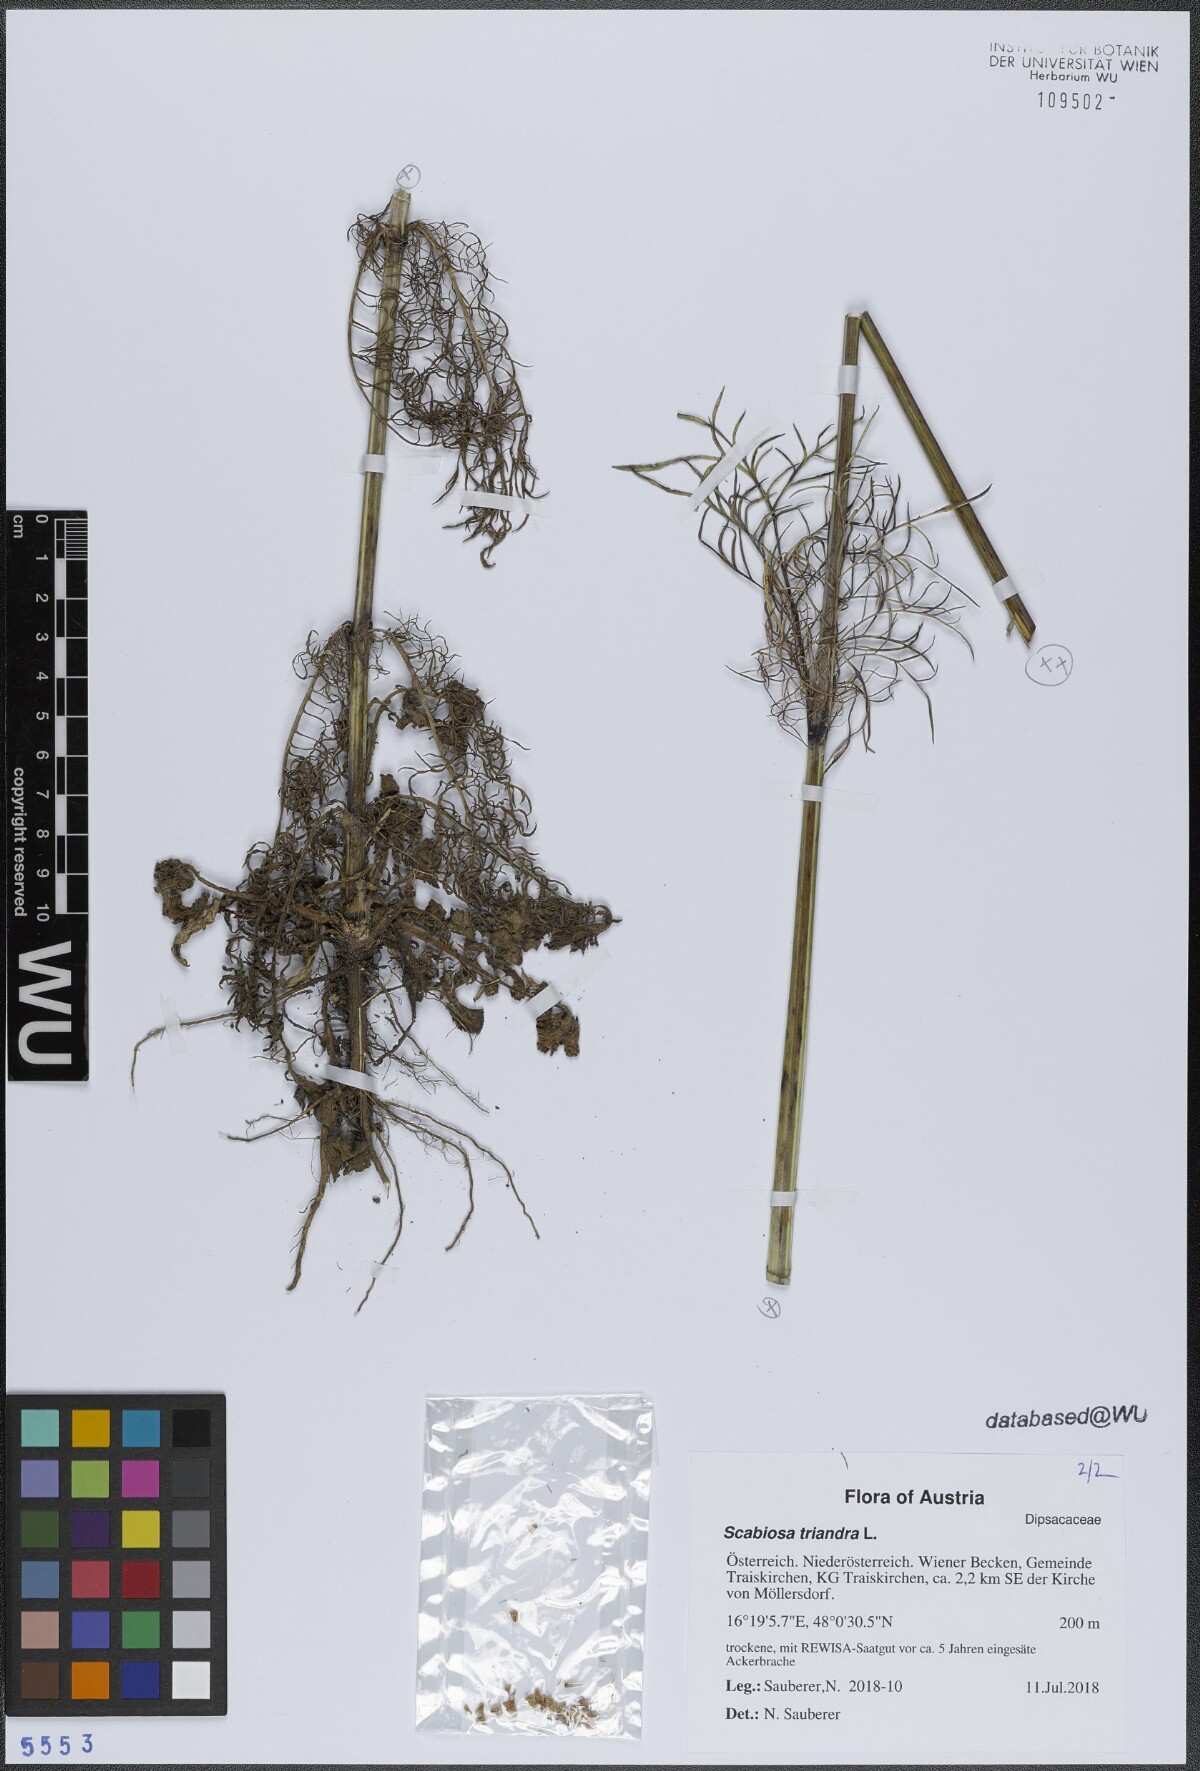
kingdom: Plantae
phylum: Tracheophyta
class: Magnoliopsida
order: Dipsacales
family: Caprifoliaceae
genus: Scabiosa
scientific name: Scabiosa triandra
